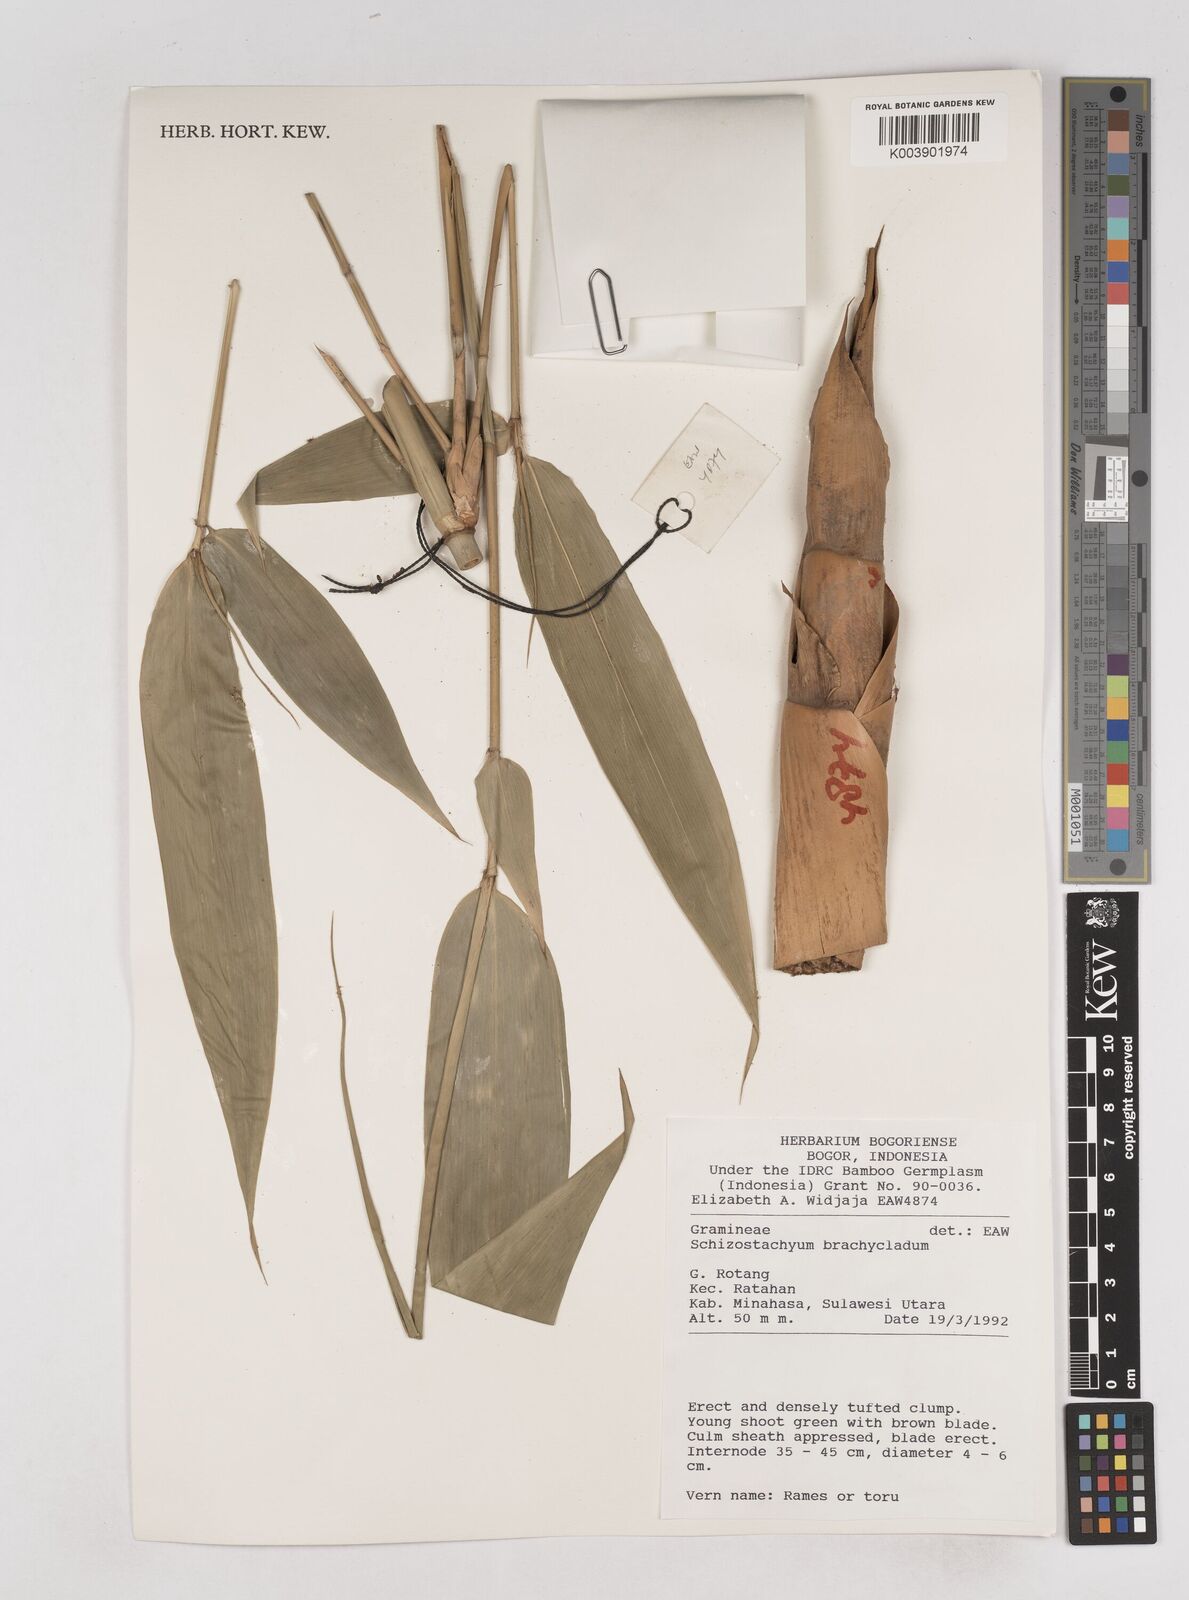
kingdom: Plantae
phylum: Tracheophyta
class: Liliopsida
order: Poales
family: Poaceae
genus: Schizostachyum
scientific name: Schizostachyum brachycladum
